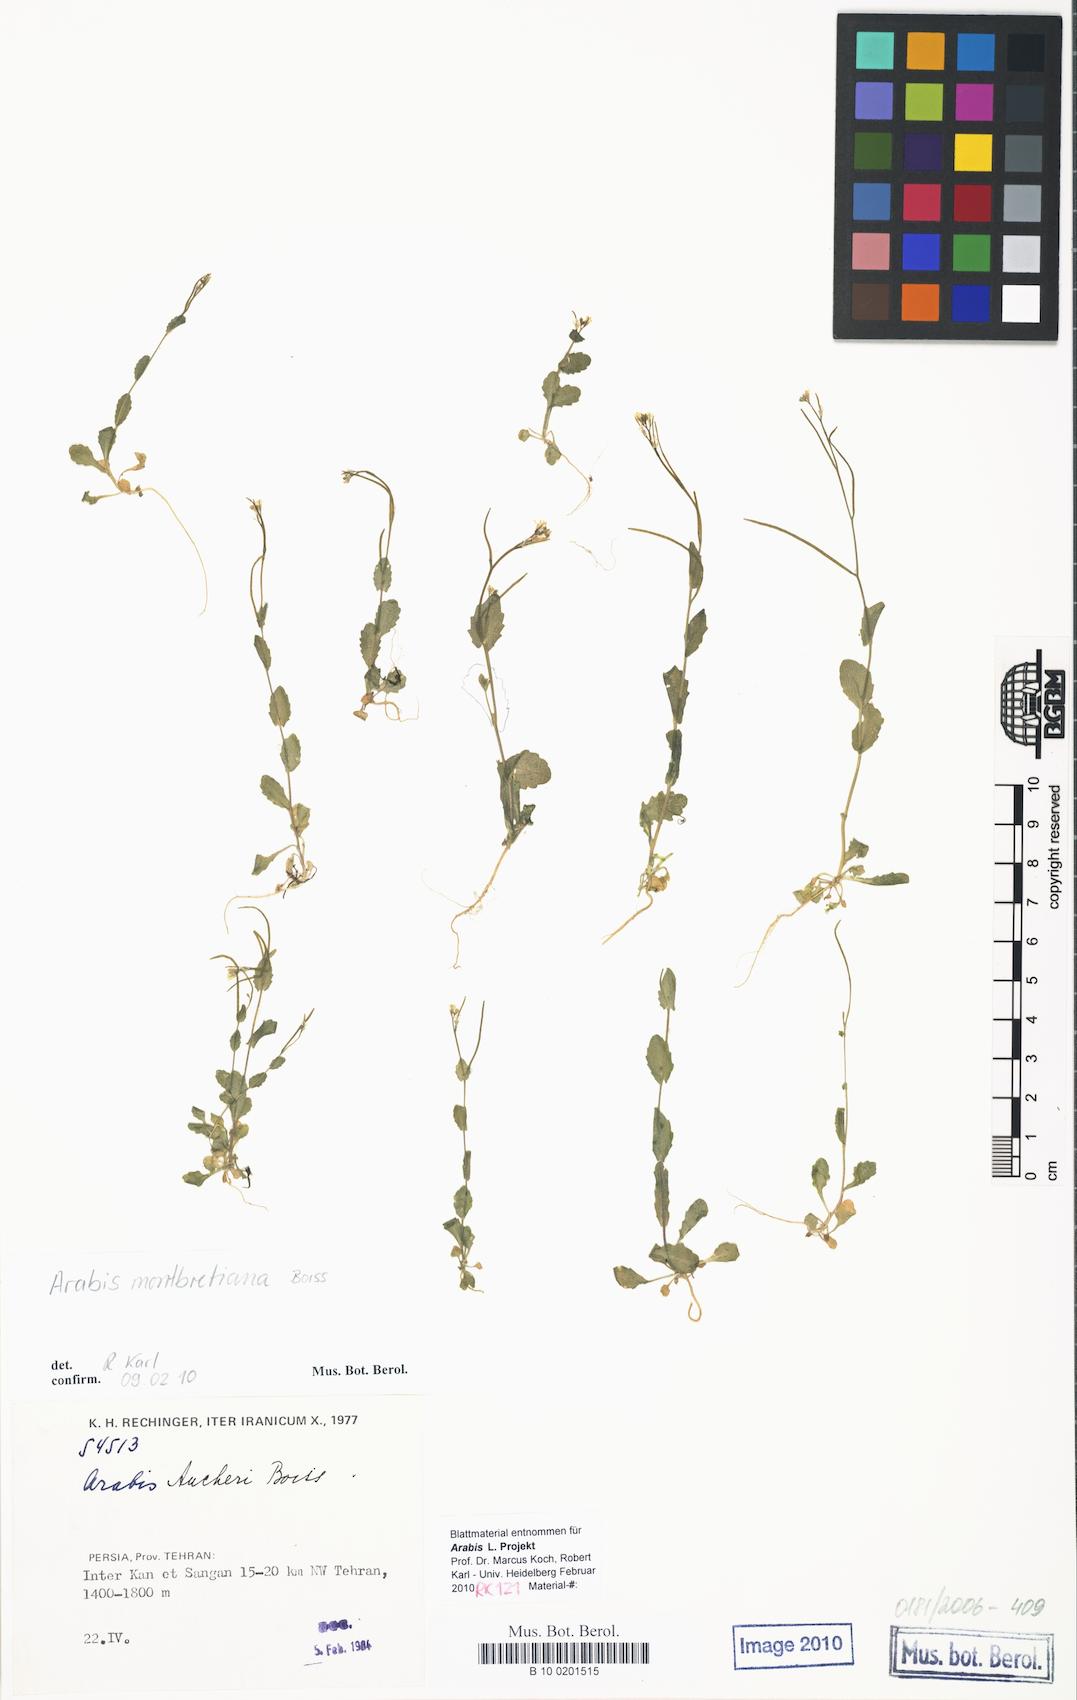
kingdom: Plantae
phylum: Tracheophyta
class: Magnoliopsida
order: Brassicales
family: Brassicaceae
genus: Arabis
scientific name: Arabis nova
